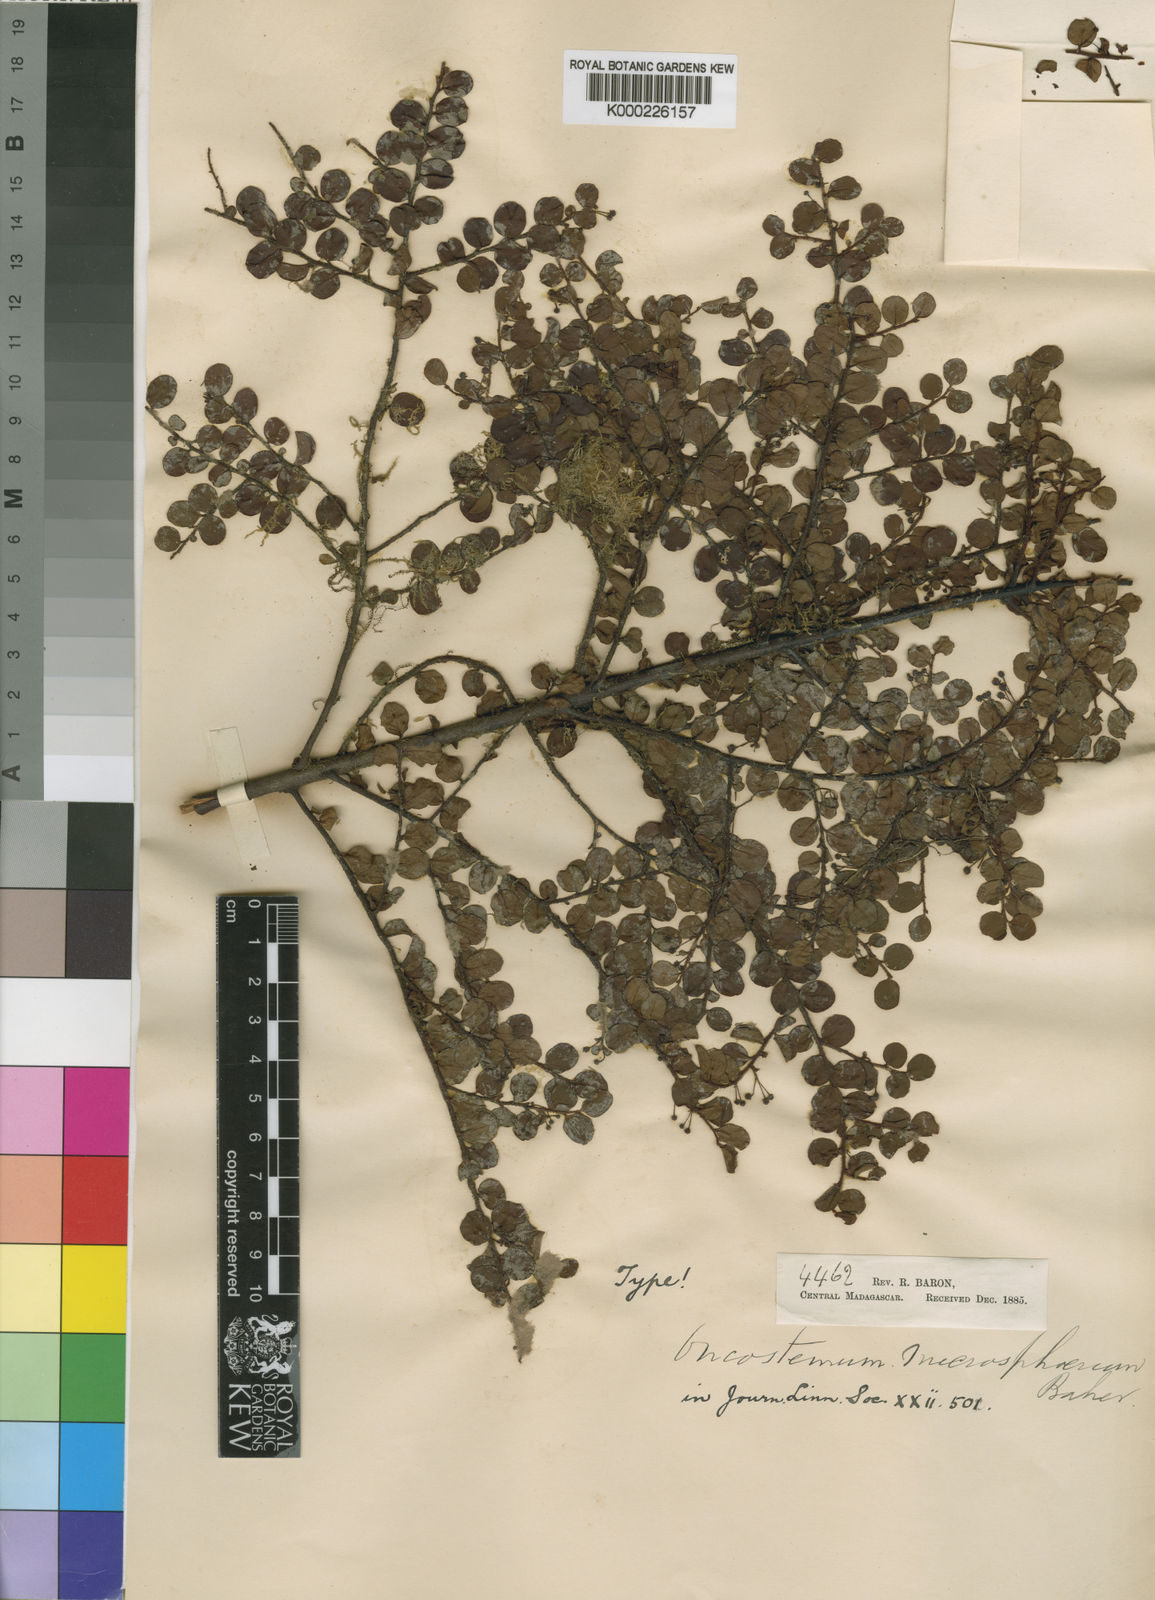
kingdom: Plantae
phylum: Tracheophyta
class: Magnoliopsida
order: Ericales
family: Primulaceae
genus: Oncostemum
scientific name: Oncostemum microsphaerum
